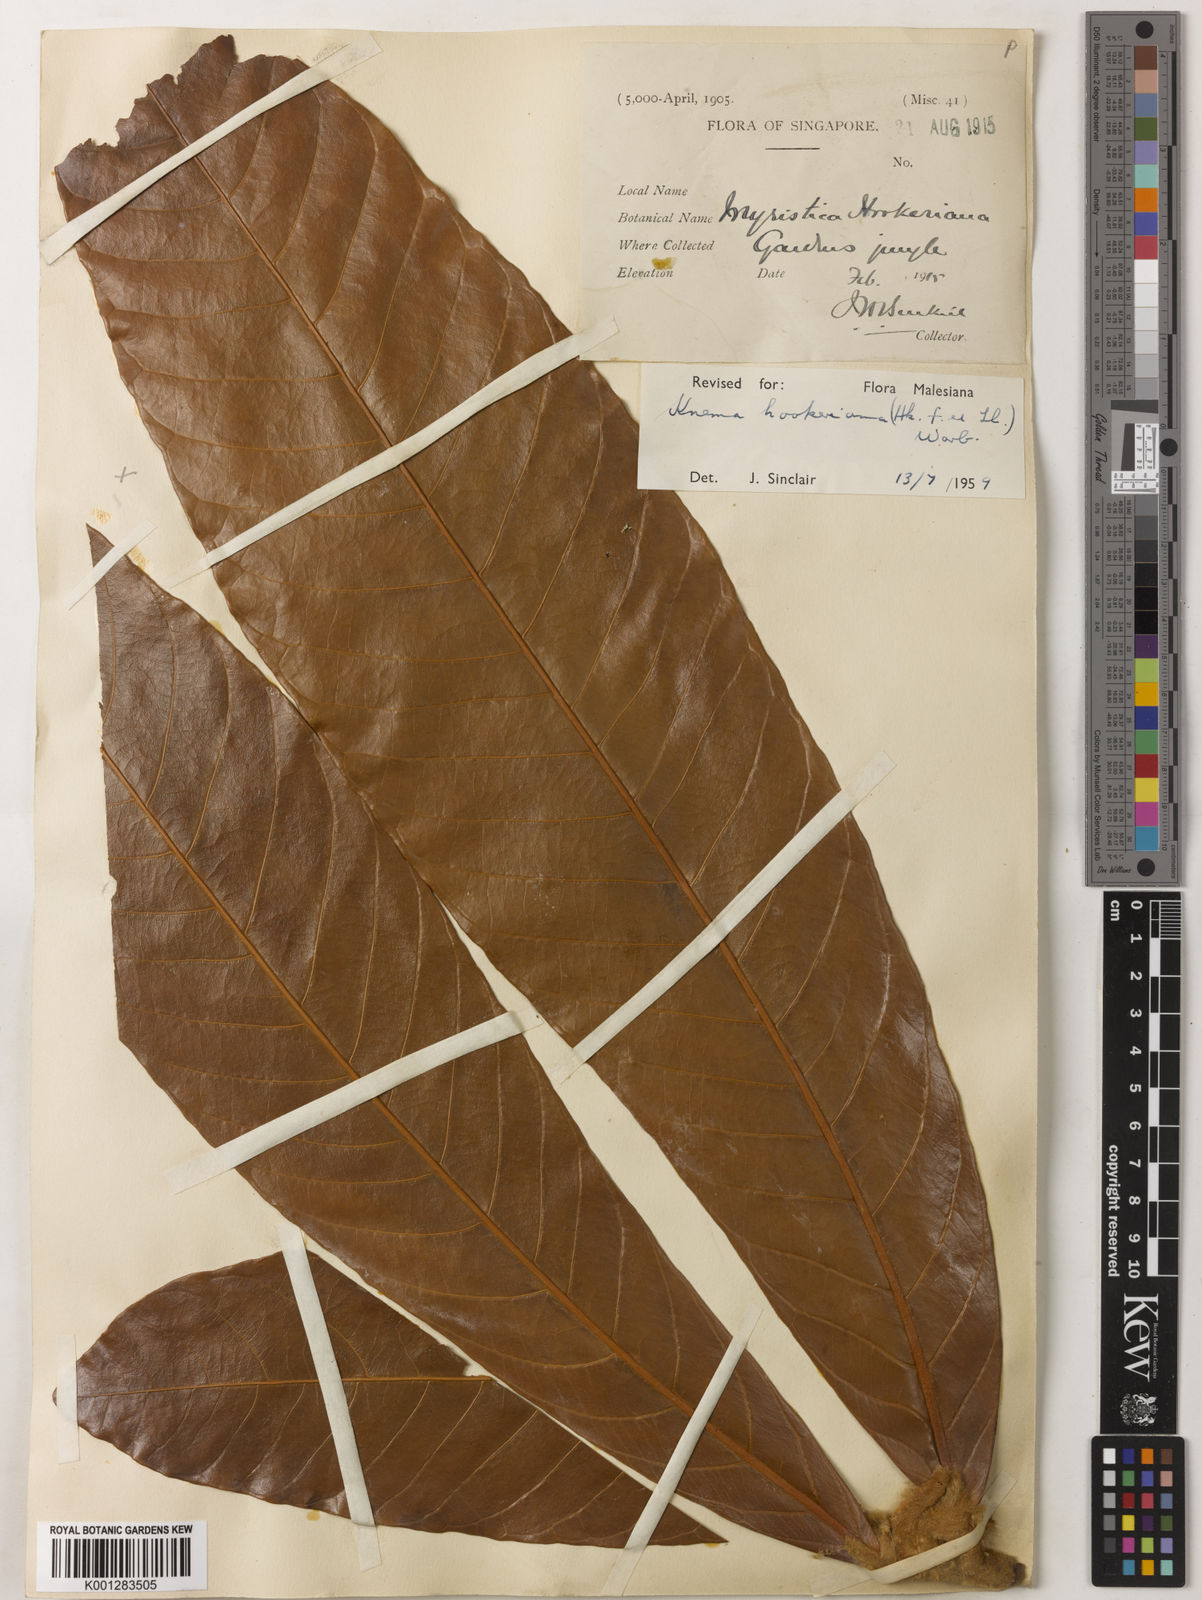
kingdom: Plantae
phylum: Tracheophyta
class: Magnoliopsida
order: Magnoliales
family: Myristicaceae
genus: Knema
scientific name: Knema hookeriana
